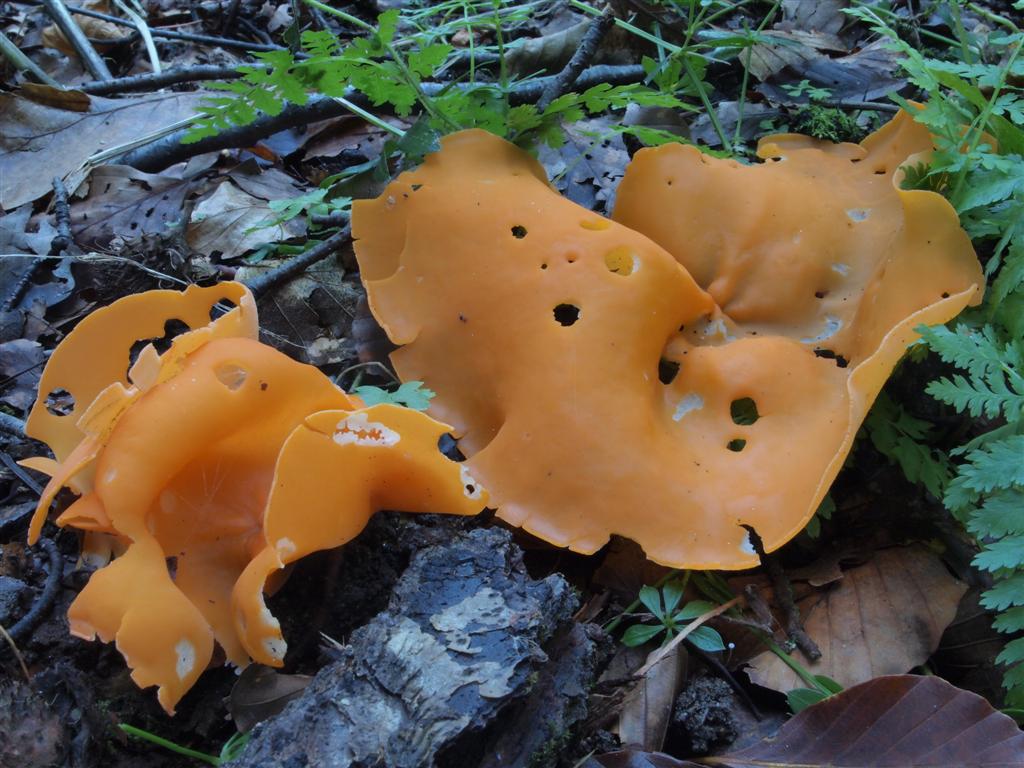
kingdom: Fungi
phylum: Ascomycota
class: Pezizomycetes
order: Pezizales
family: Pyronemataceae
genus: Aleuria
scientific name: Aleuria aurantia
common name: almindelig orangebæger
